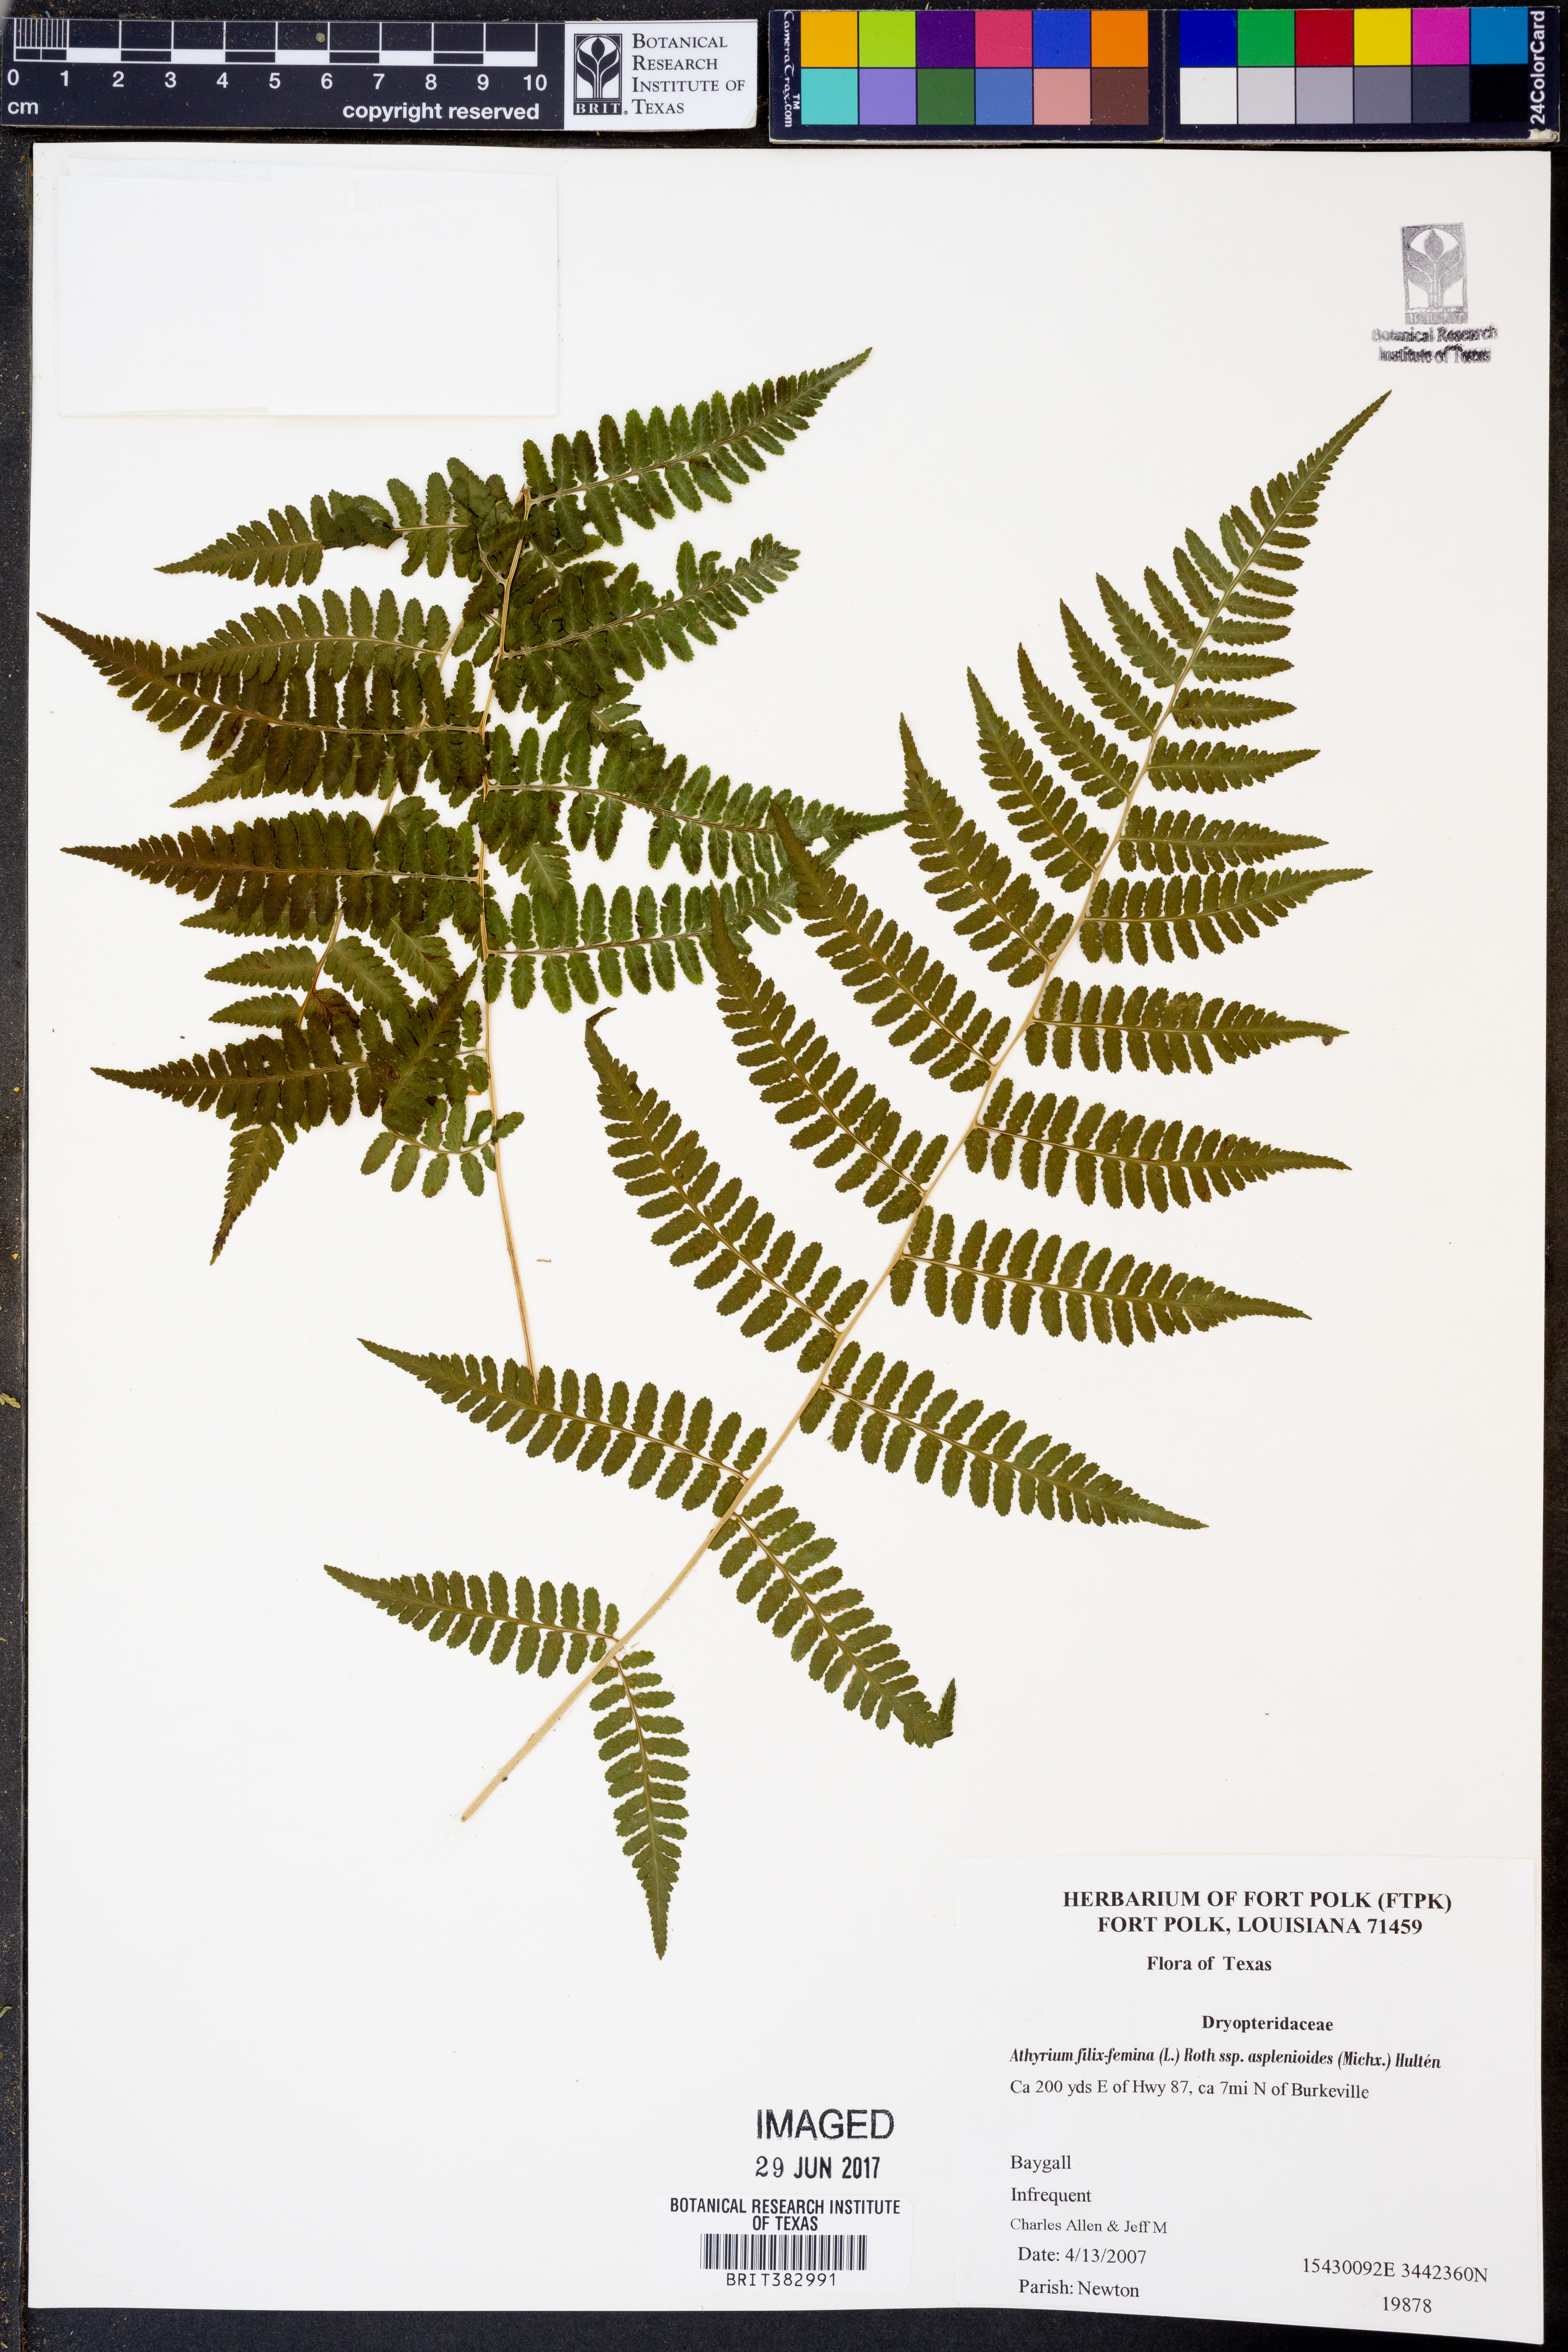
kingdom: Plantae
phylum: Tracheophyta
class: Polypodiopsida
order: Polypodiales
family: Athyriaceae
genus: Athyrium
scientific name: Athyrium asplenioides
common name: Southern lady fern
